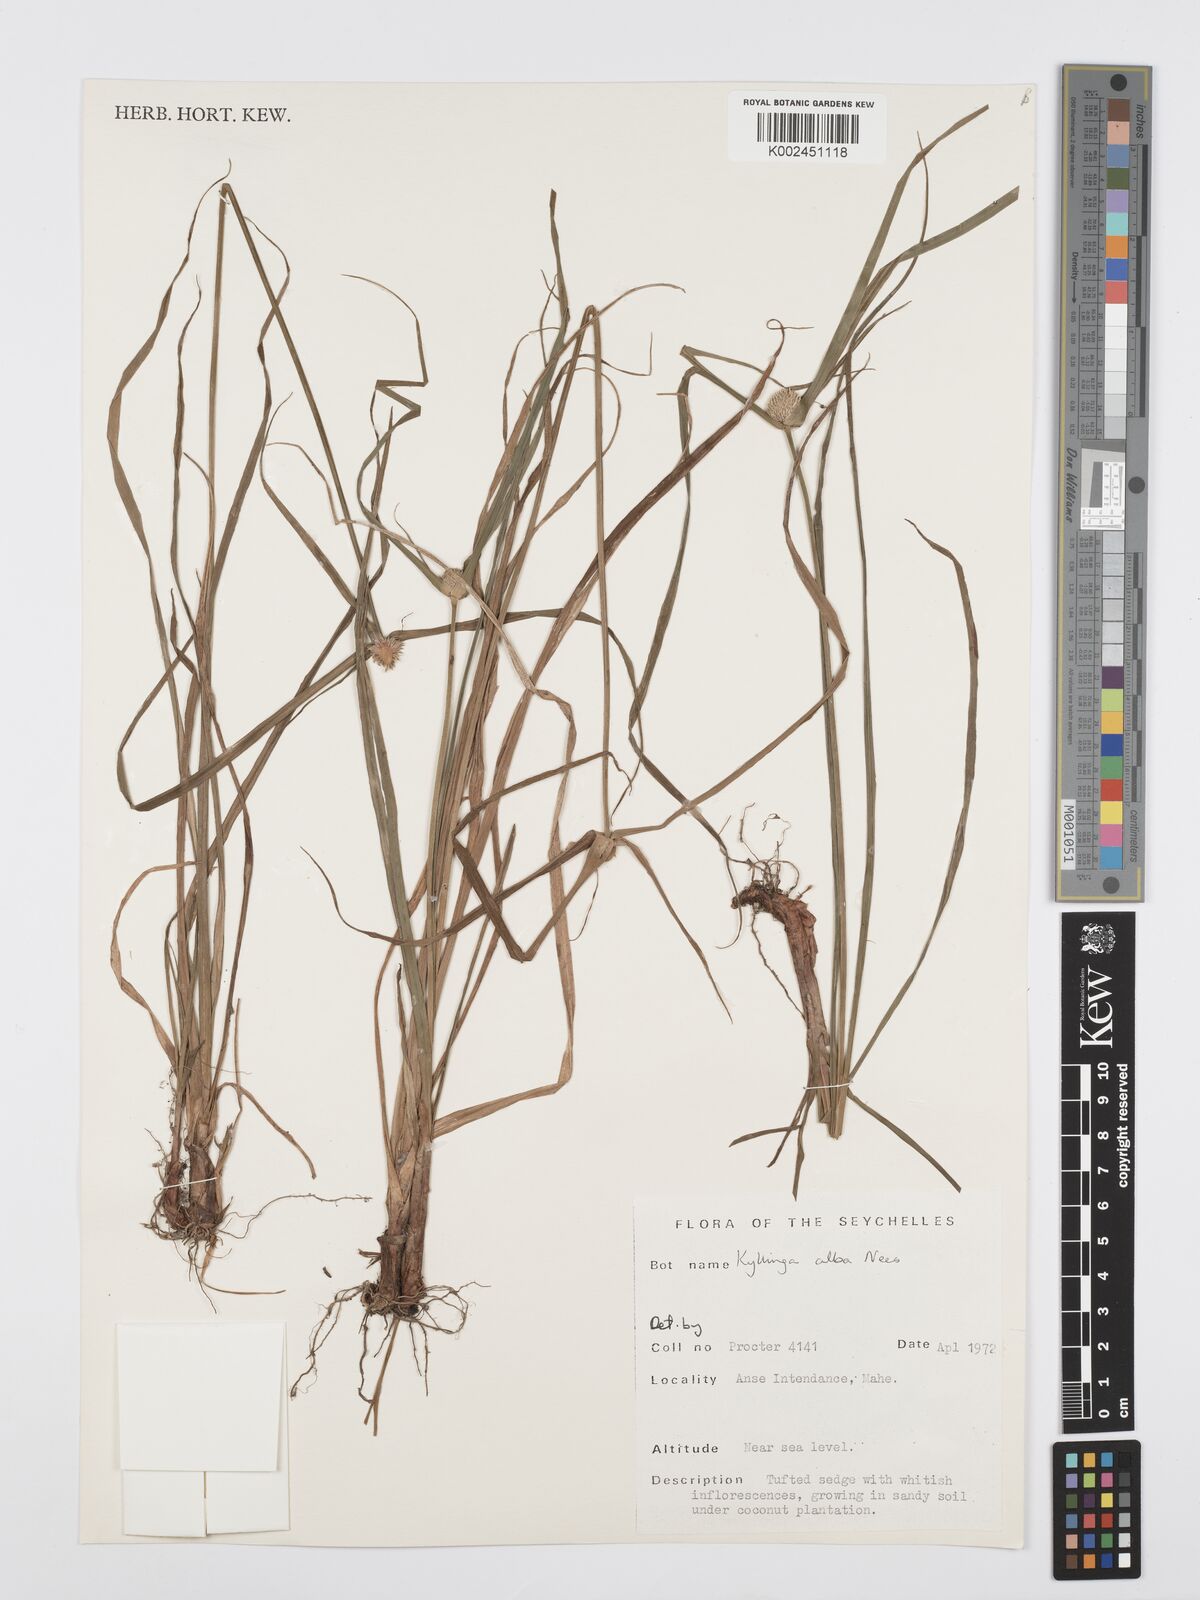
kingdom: Plantae
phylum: Tracheophyta
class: Liliopsida
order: Poales
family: Cyperaceae
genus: Cyperus
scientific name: Cyperus
